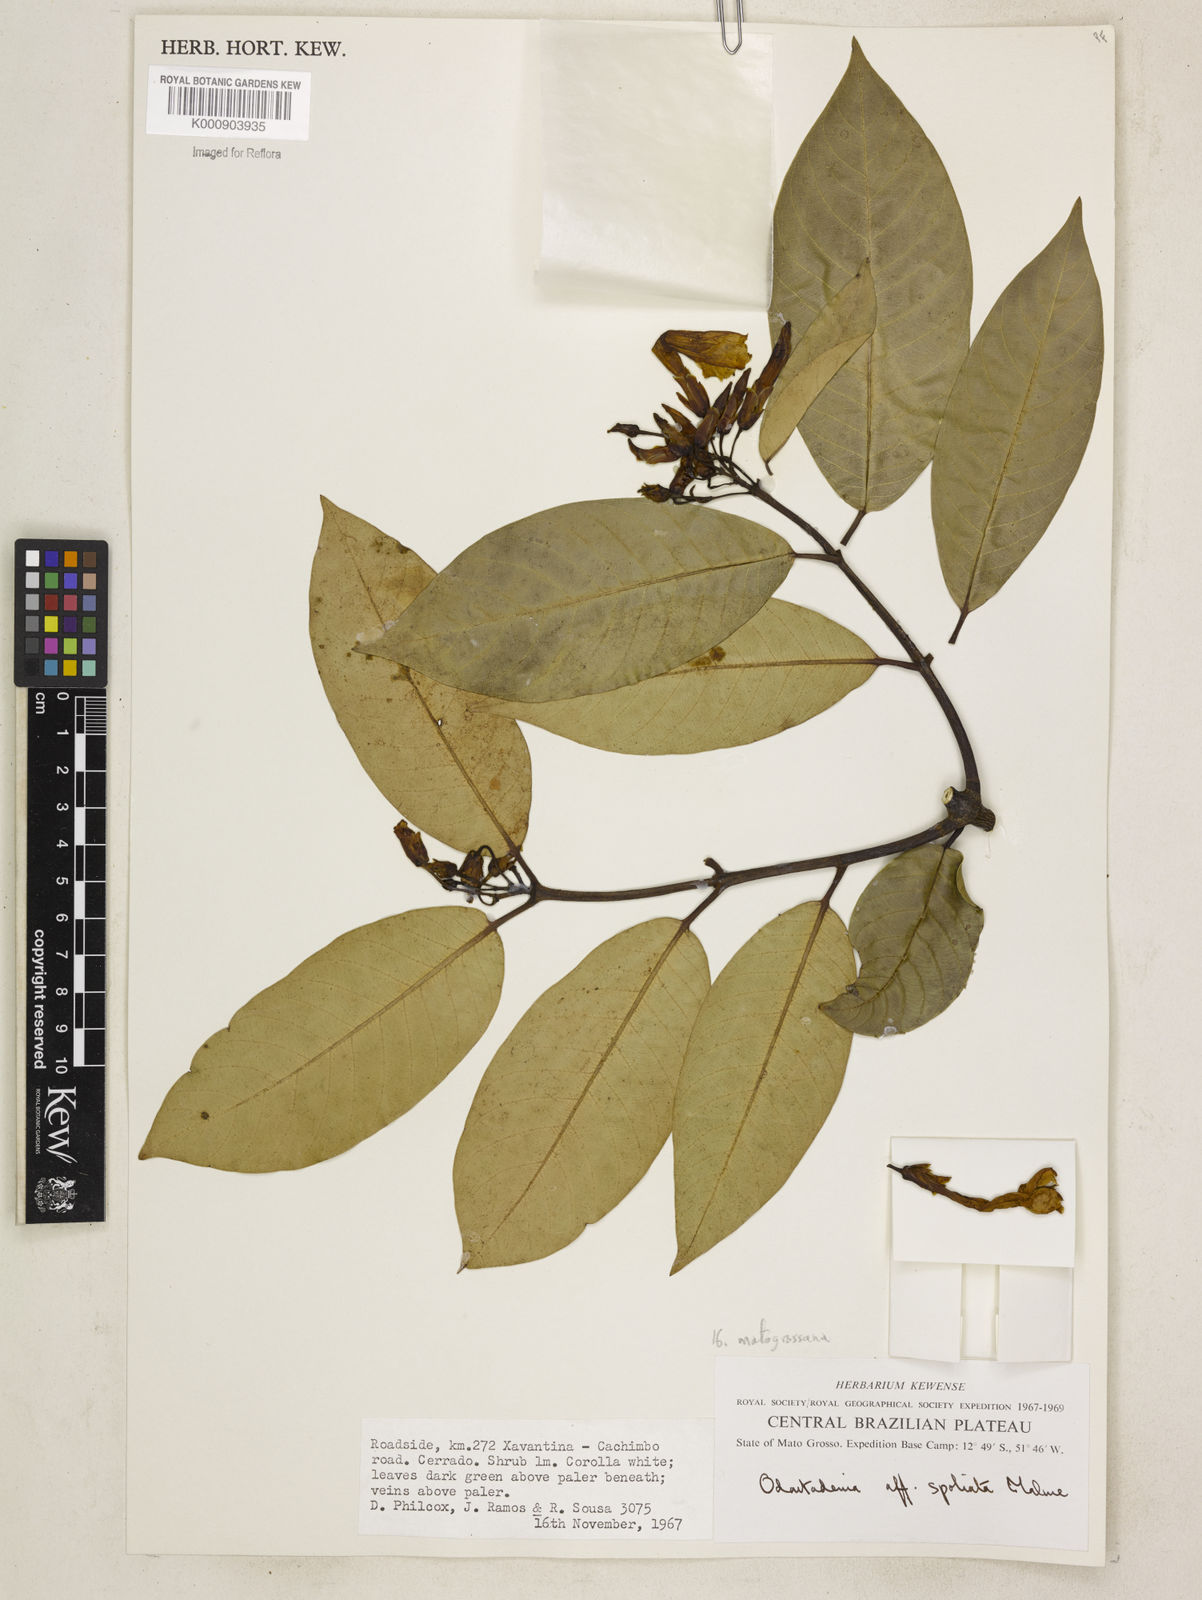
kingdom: Plantae
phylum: Tracheophyta
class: Magnoliopsida
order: Gentianales
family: Apocynaceae
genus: Odontadenia
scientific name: Odontadenia matogrossana
